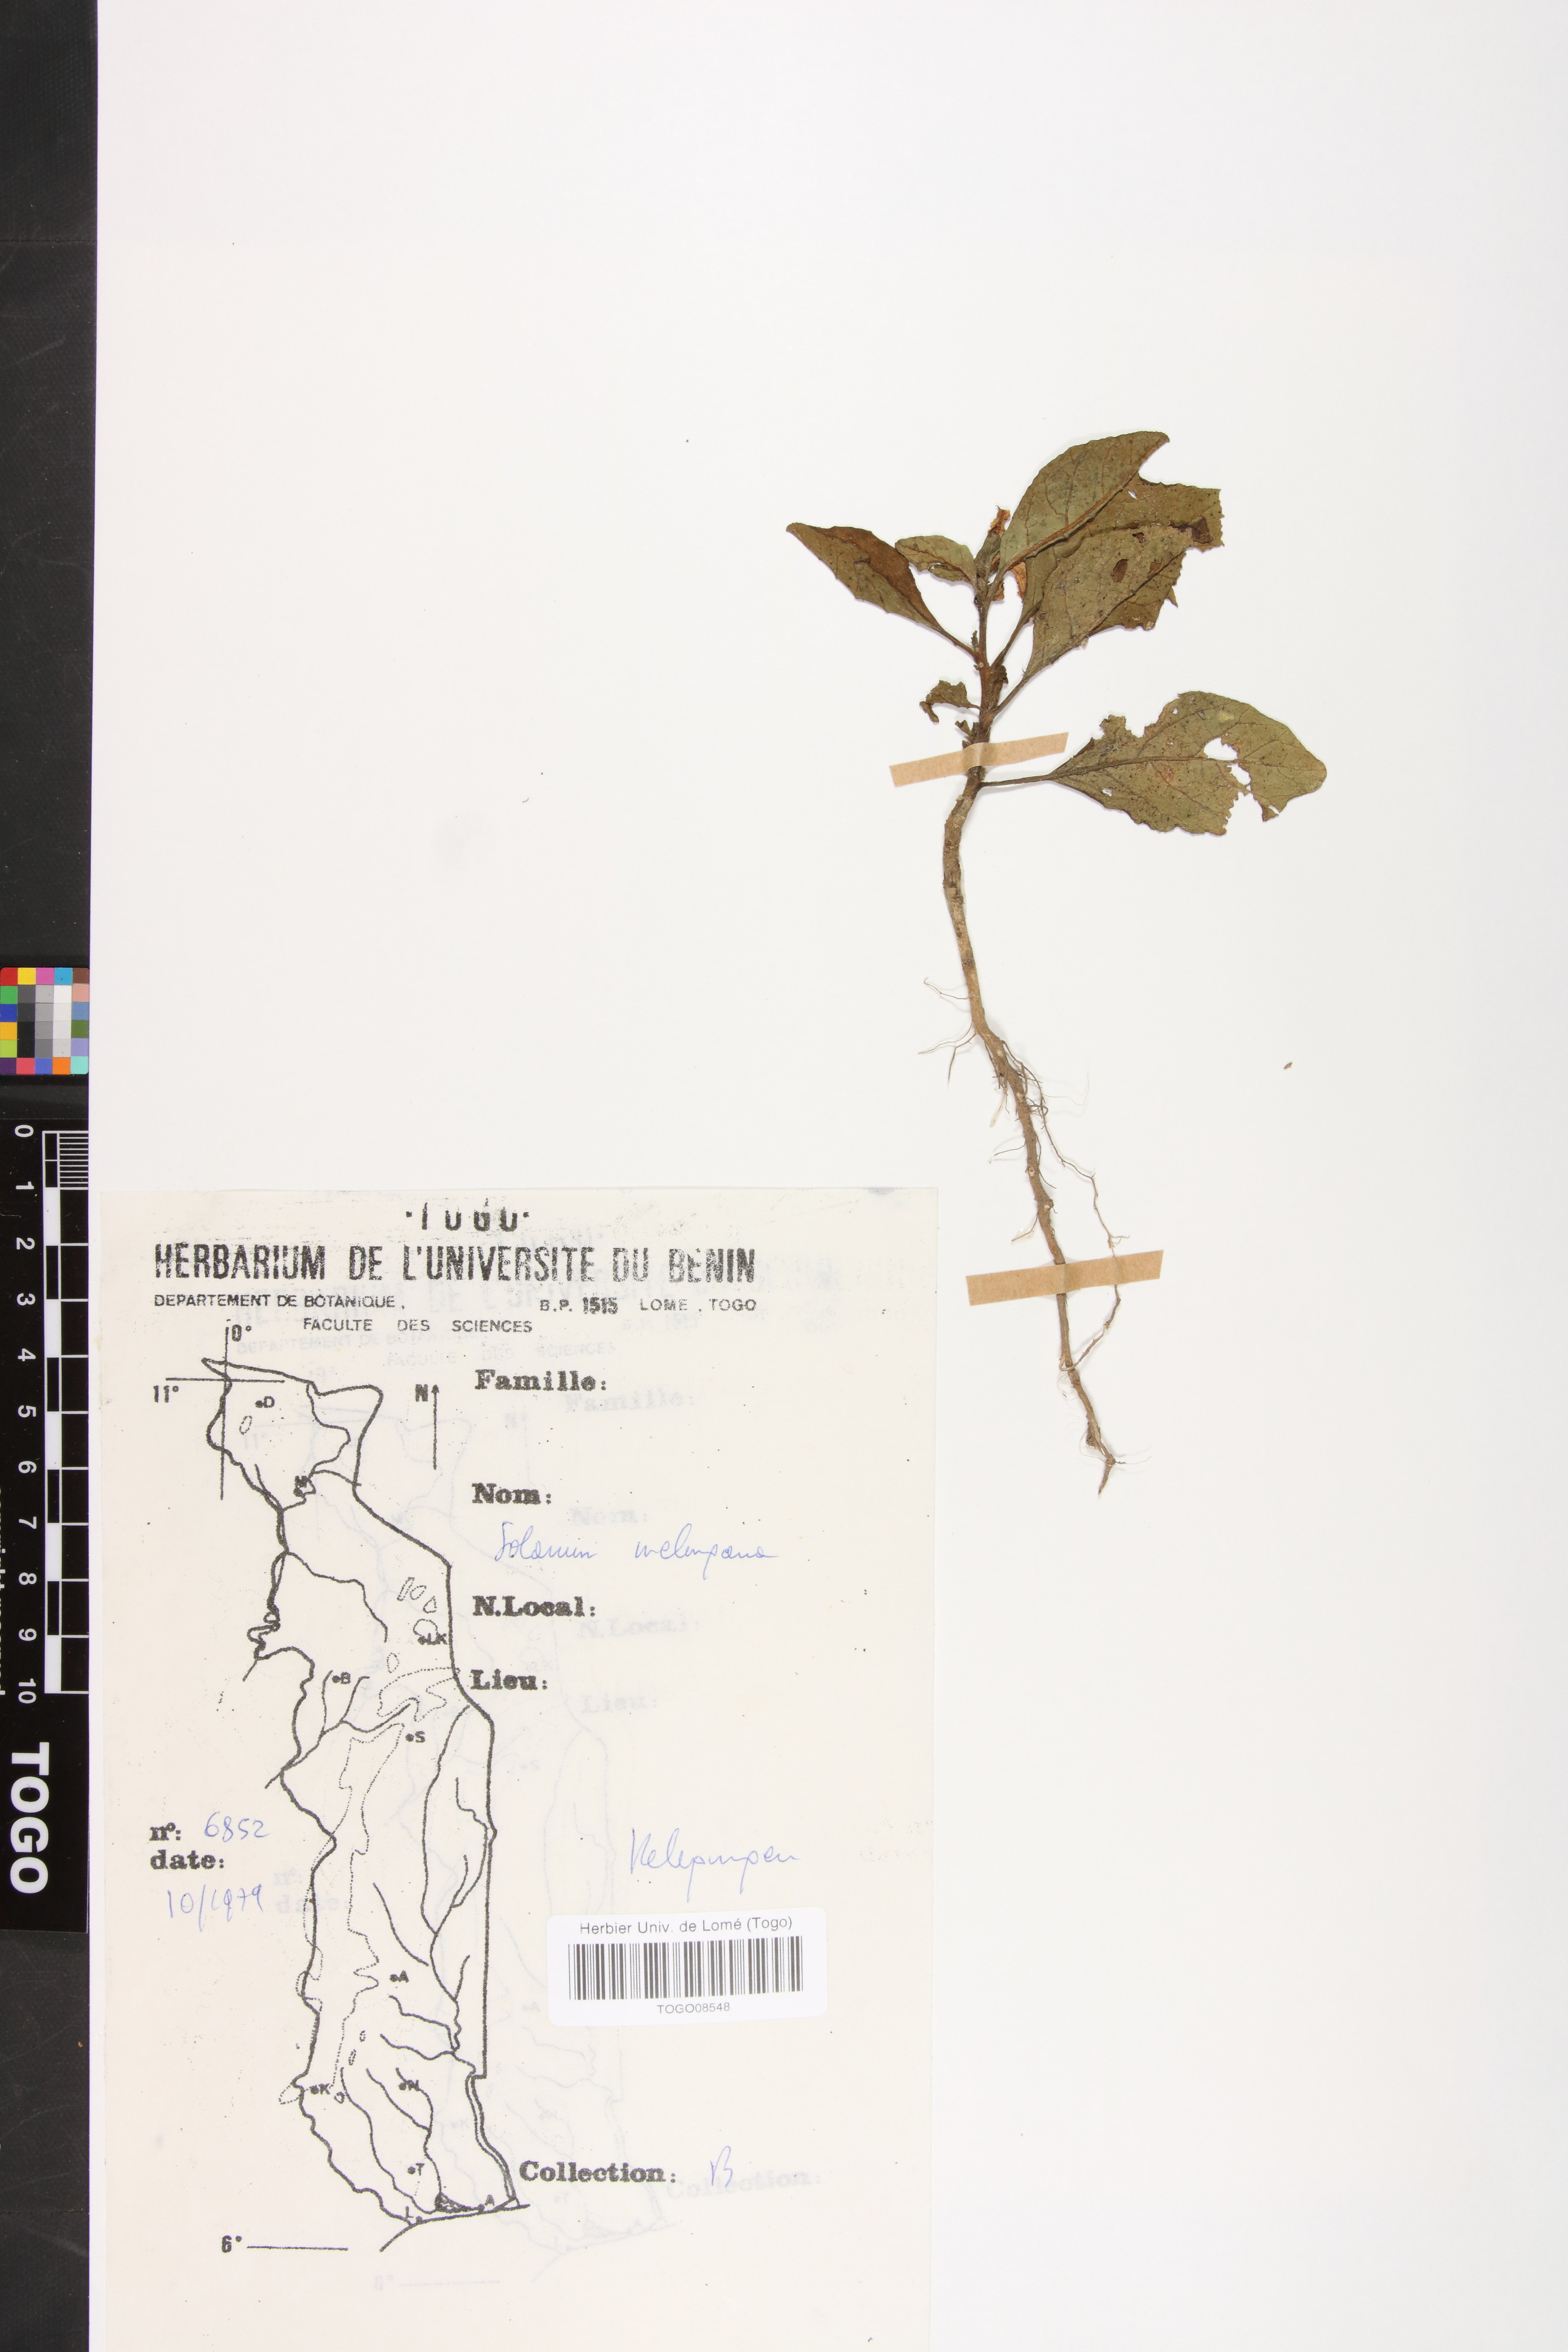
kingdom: Plantae
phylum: Tracheophyta
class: Magnoliopsida
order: Solanales
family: Solanaceae
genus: Solanum
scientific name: Solanum melongena
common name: Eggplant
